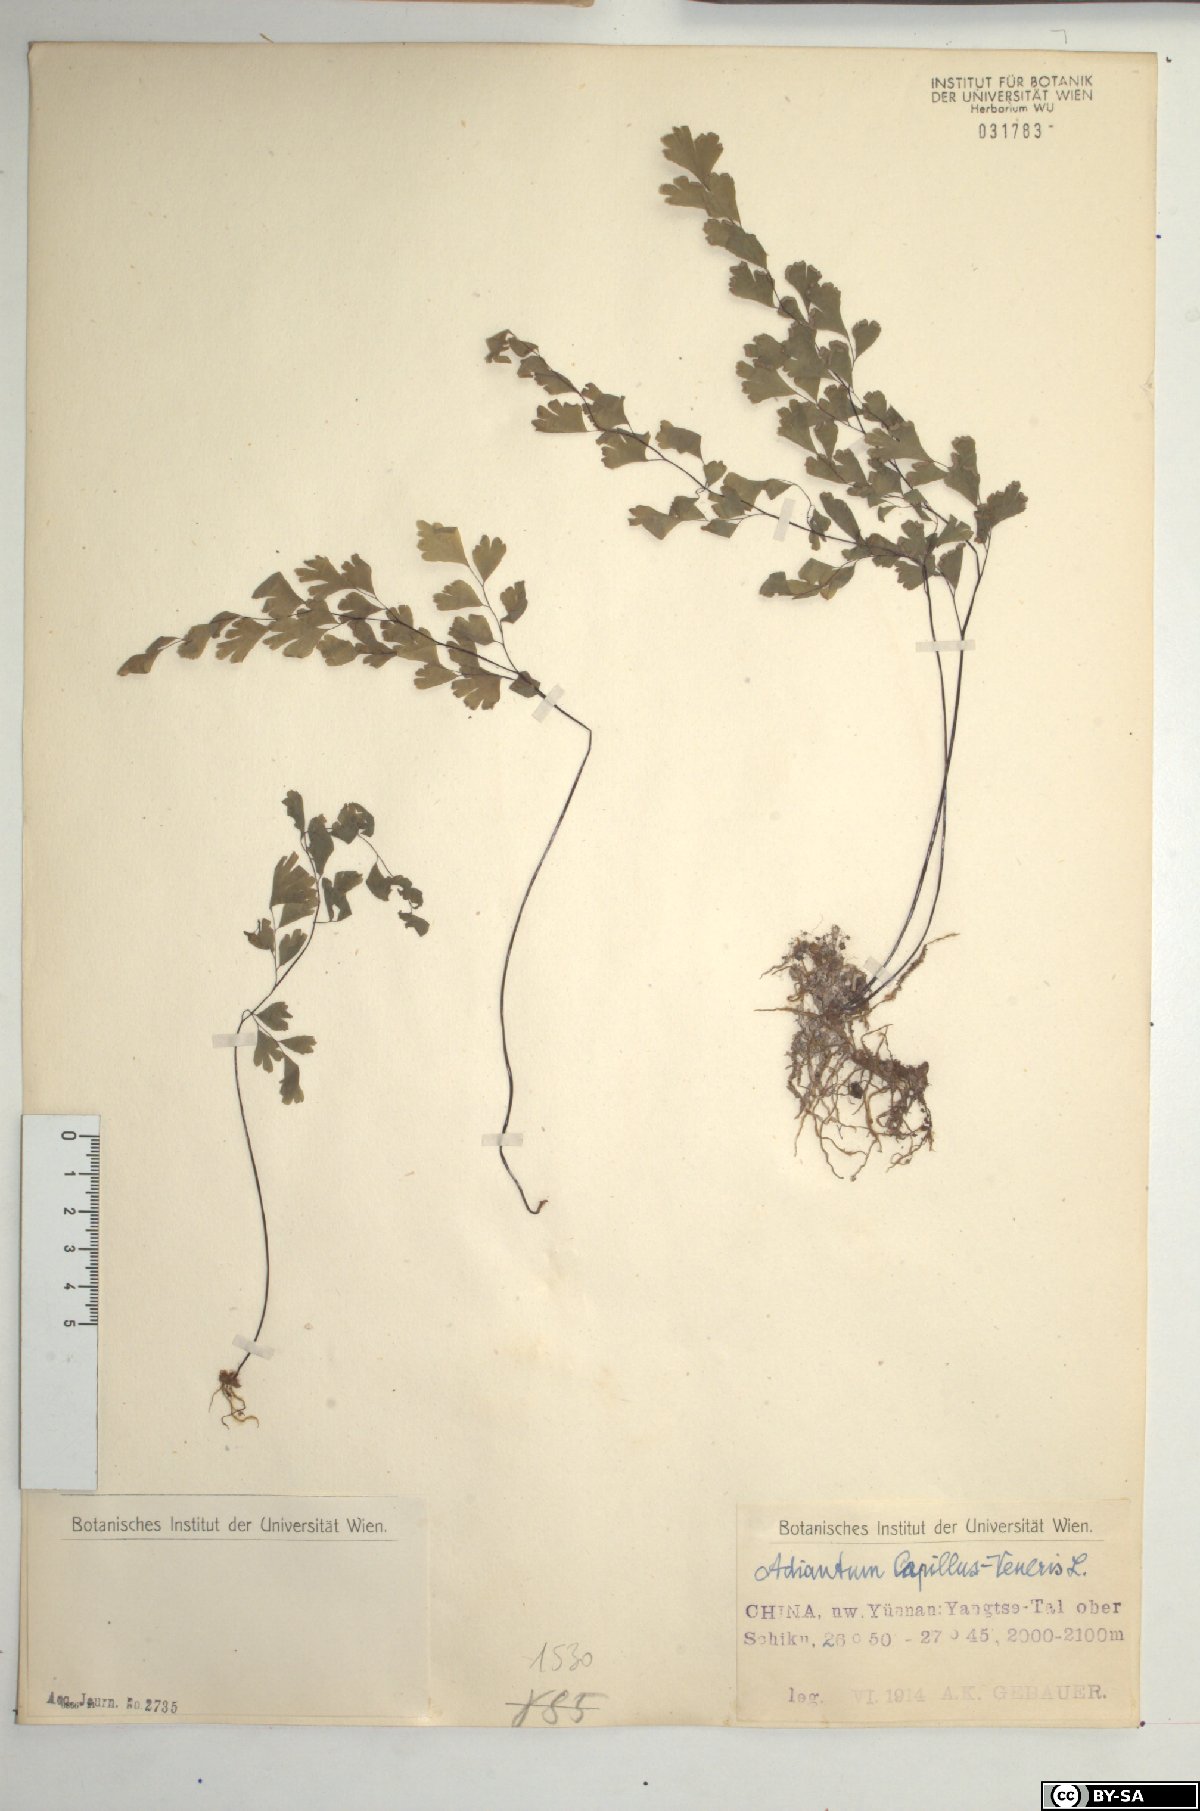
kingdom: Plantae
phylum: Tracheophyta
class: Polypodiopsida
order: Polypodiales
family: Pteridaceae
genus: Adiantum
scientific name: Adiantum capillus-veneris
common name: Maidenhair fern
